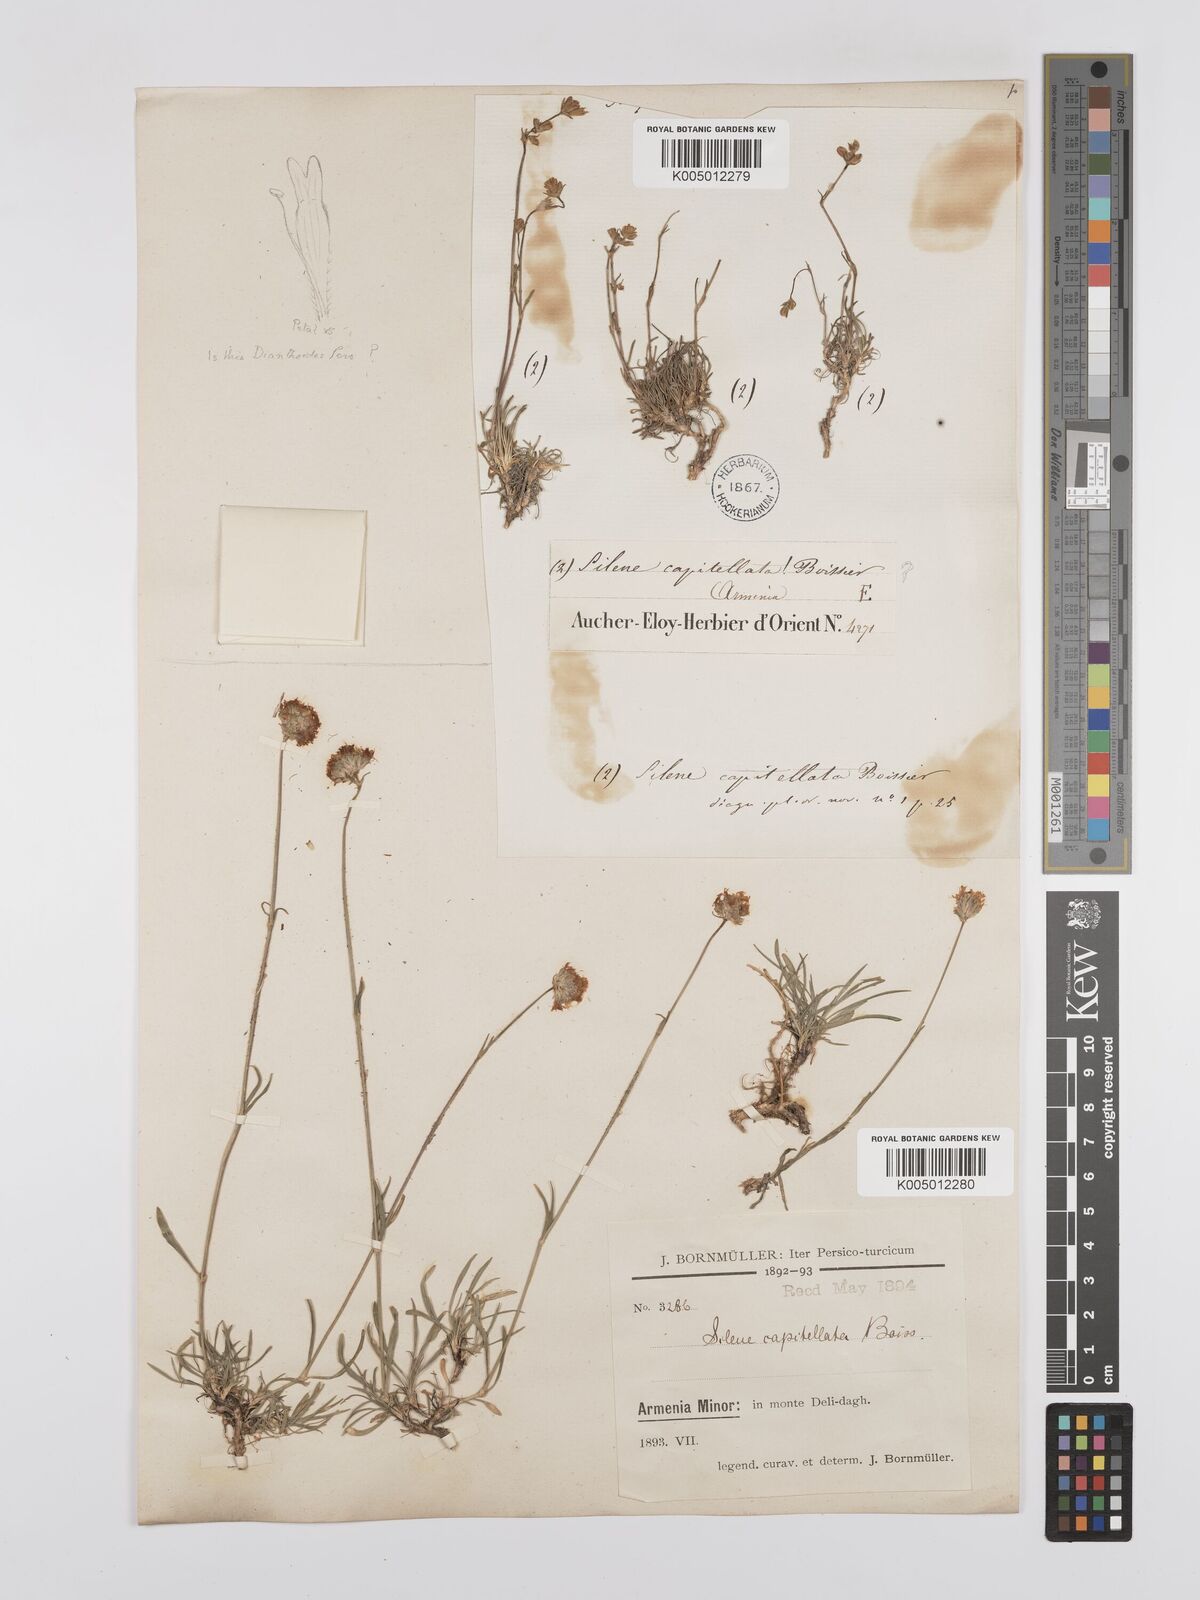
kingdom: Plantae
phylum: Tracheophyta
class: Magnoliopsida
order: Caryophyllales
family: Caryophyllaceae
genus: Silene
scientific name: Silene capitellata
